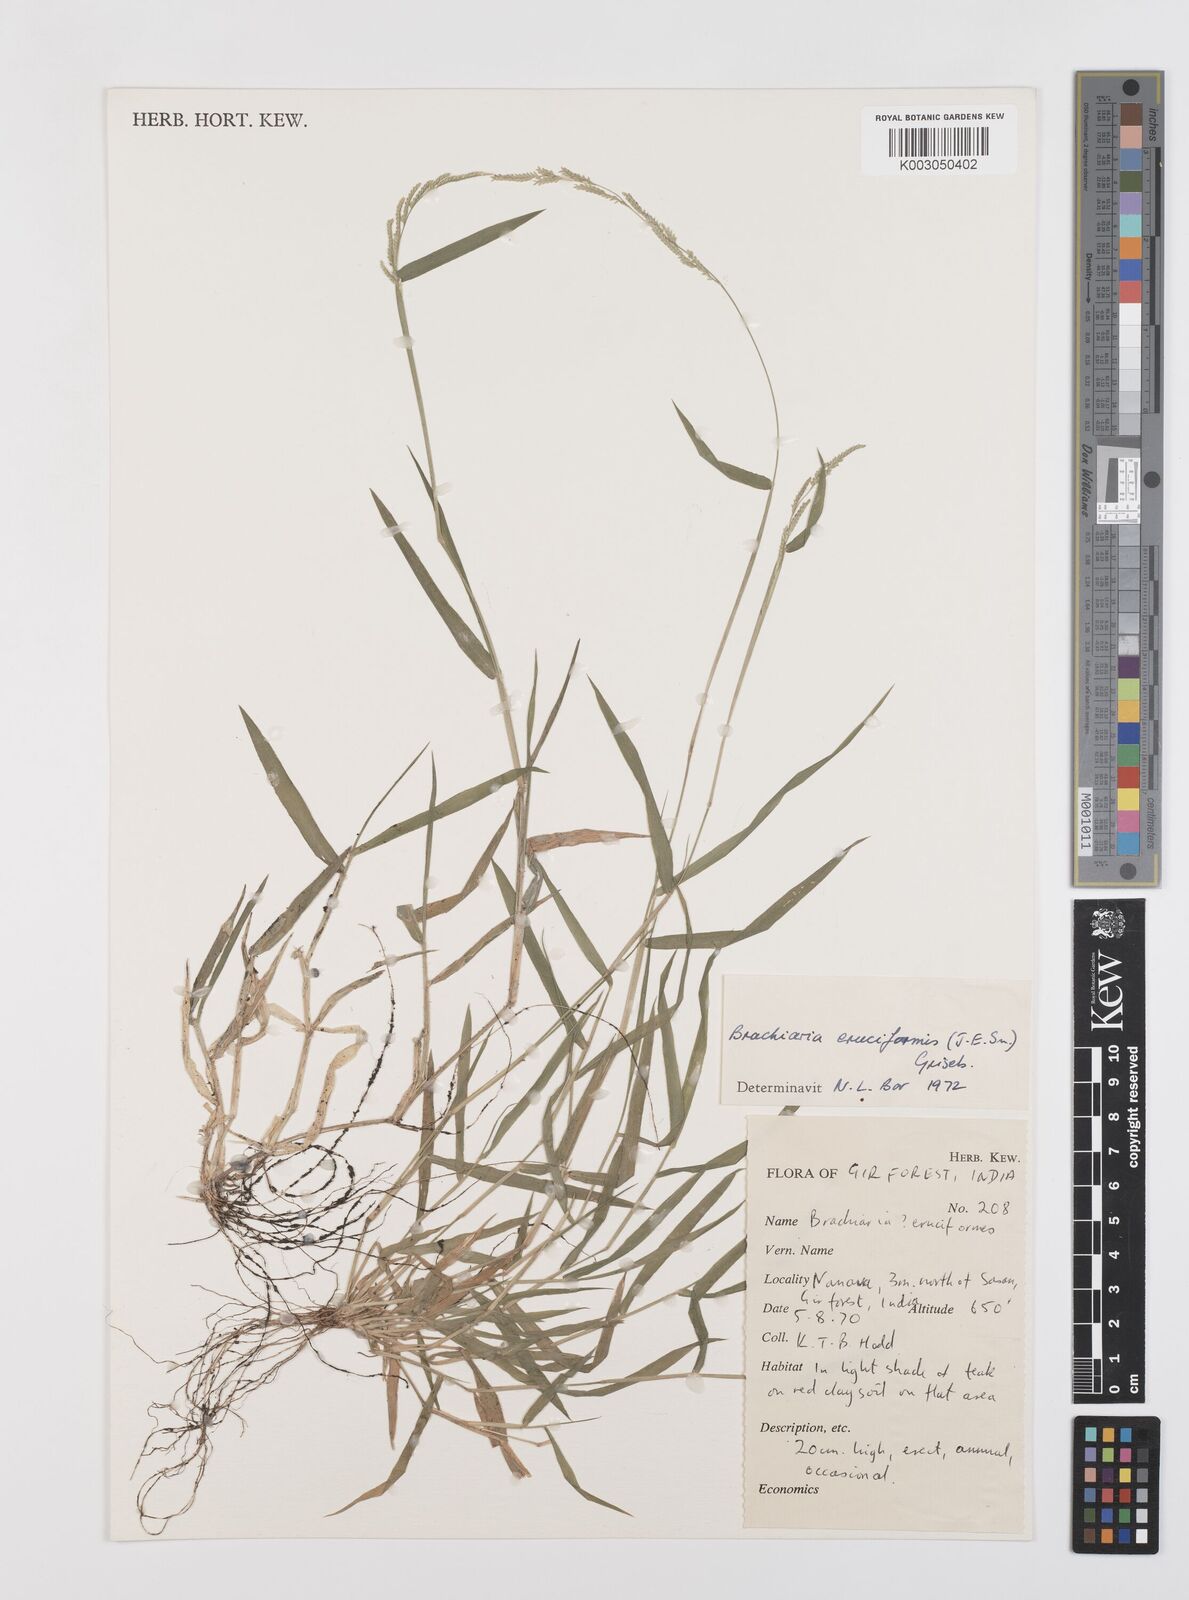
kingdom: Plantae
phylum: Tracheophyta
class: Liliopsida
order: Poales
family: Poaceae
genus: Moorochloa
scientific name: Moorochloa eruciformis
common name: Sweet signalgrass
